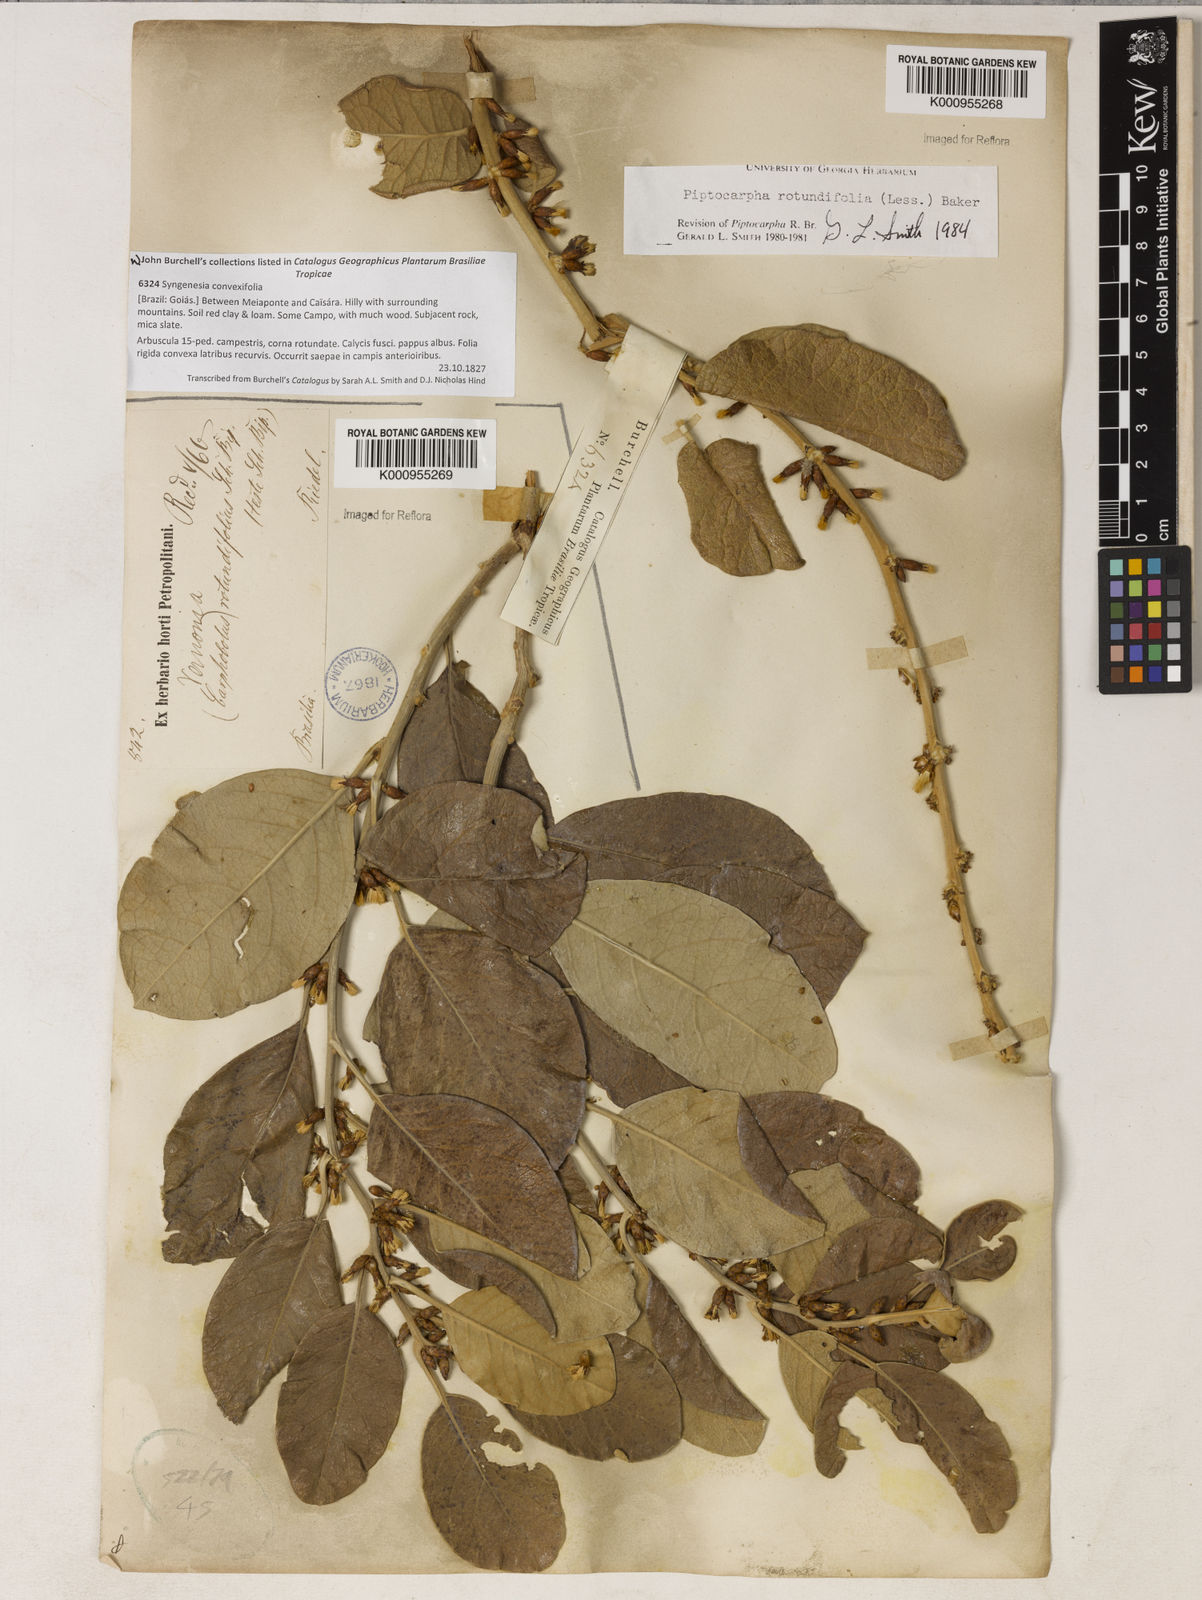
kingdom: Plantae
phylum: Tracheophyta
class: Magnoliopsida
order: Asterales
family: Asteraceae
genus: Piptocarpha
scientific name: Piptocarpha rotundifolia
